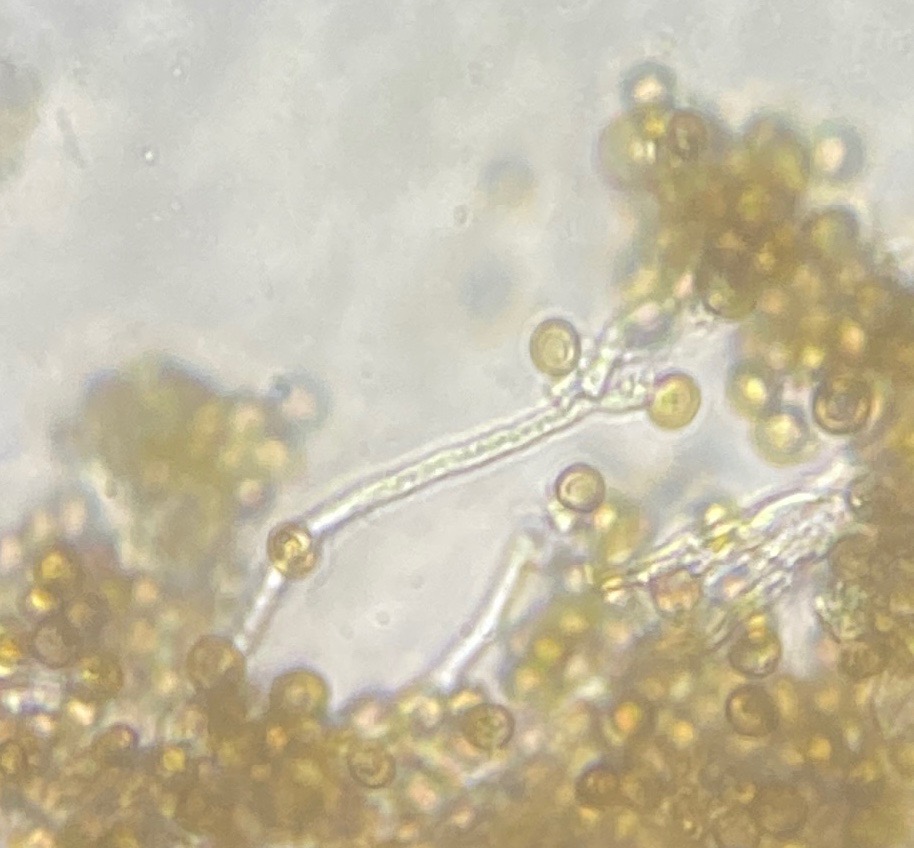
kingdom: Fungi
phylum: Basidiomycota
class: Atractiellomycetes
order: Atractiellales
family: Phleogenaceae
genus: Phleogena
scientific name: Phleogena faginea
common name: pudderkølle
